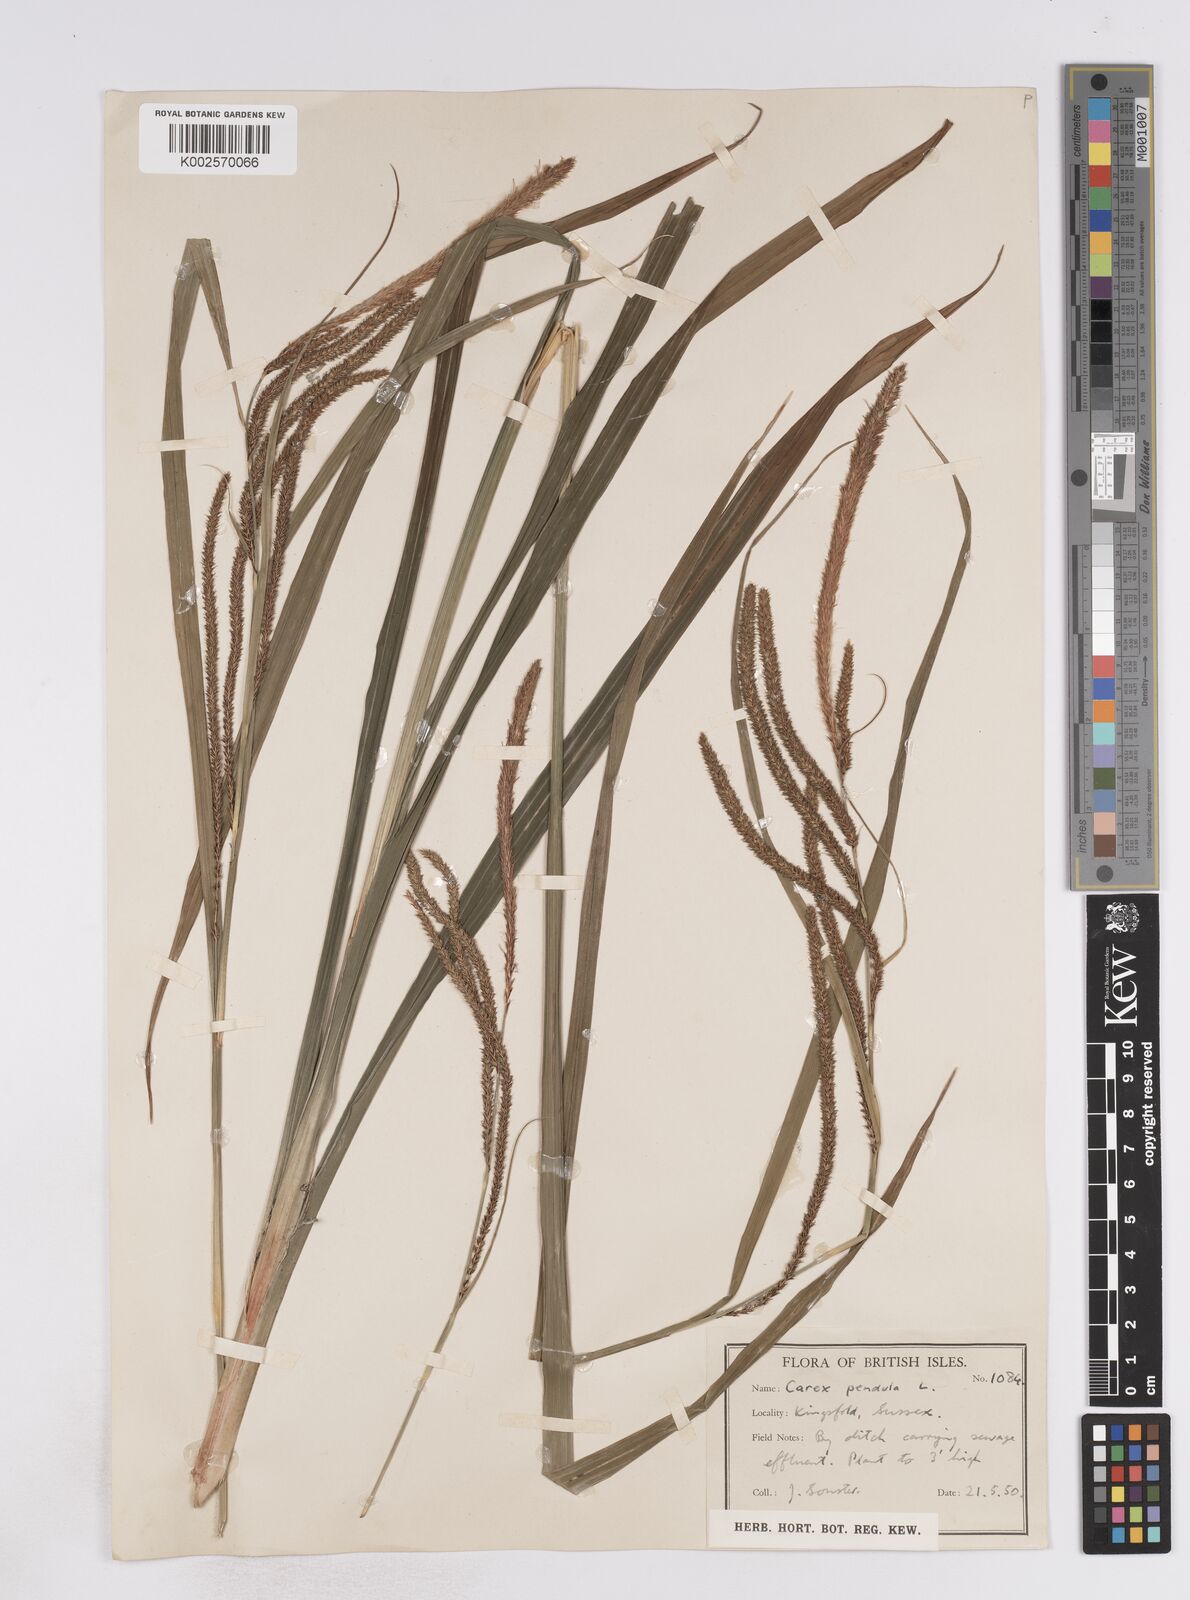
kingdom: Plantae
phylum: Tracheophyta
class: Liliopsida
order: Poales
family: Cyperaceae
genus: Carex
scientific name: Carex pendula
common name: Pendulous sedge
